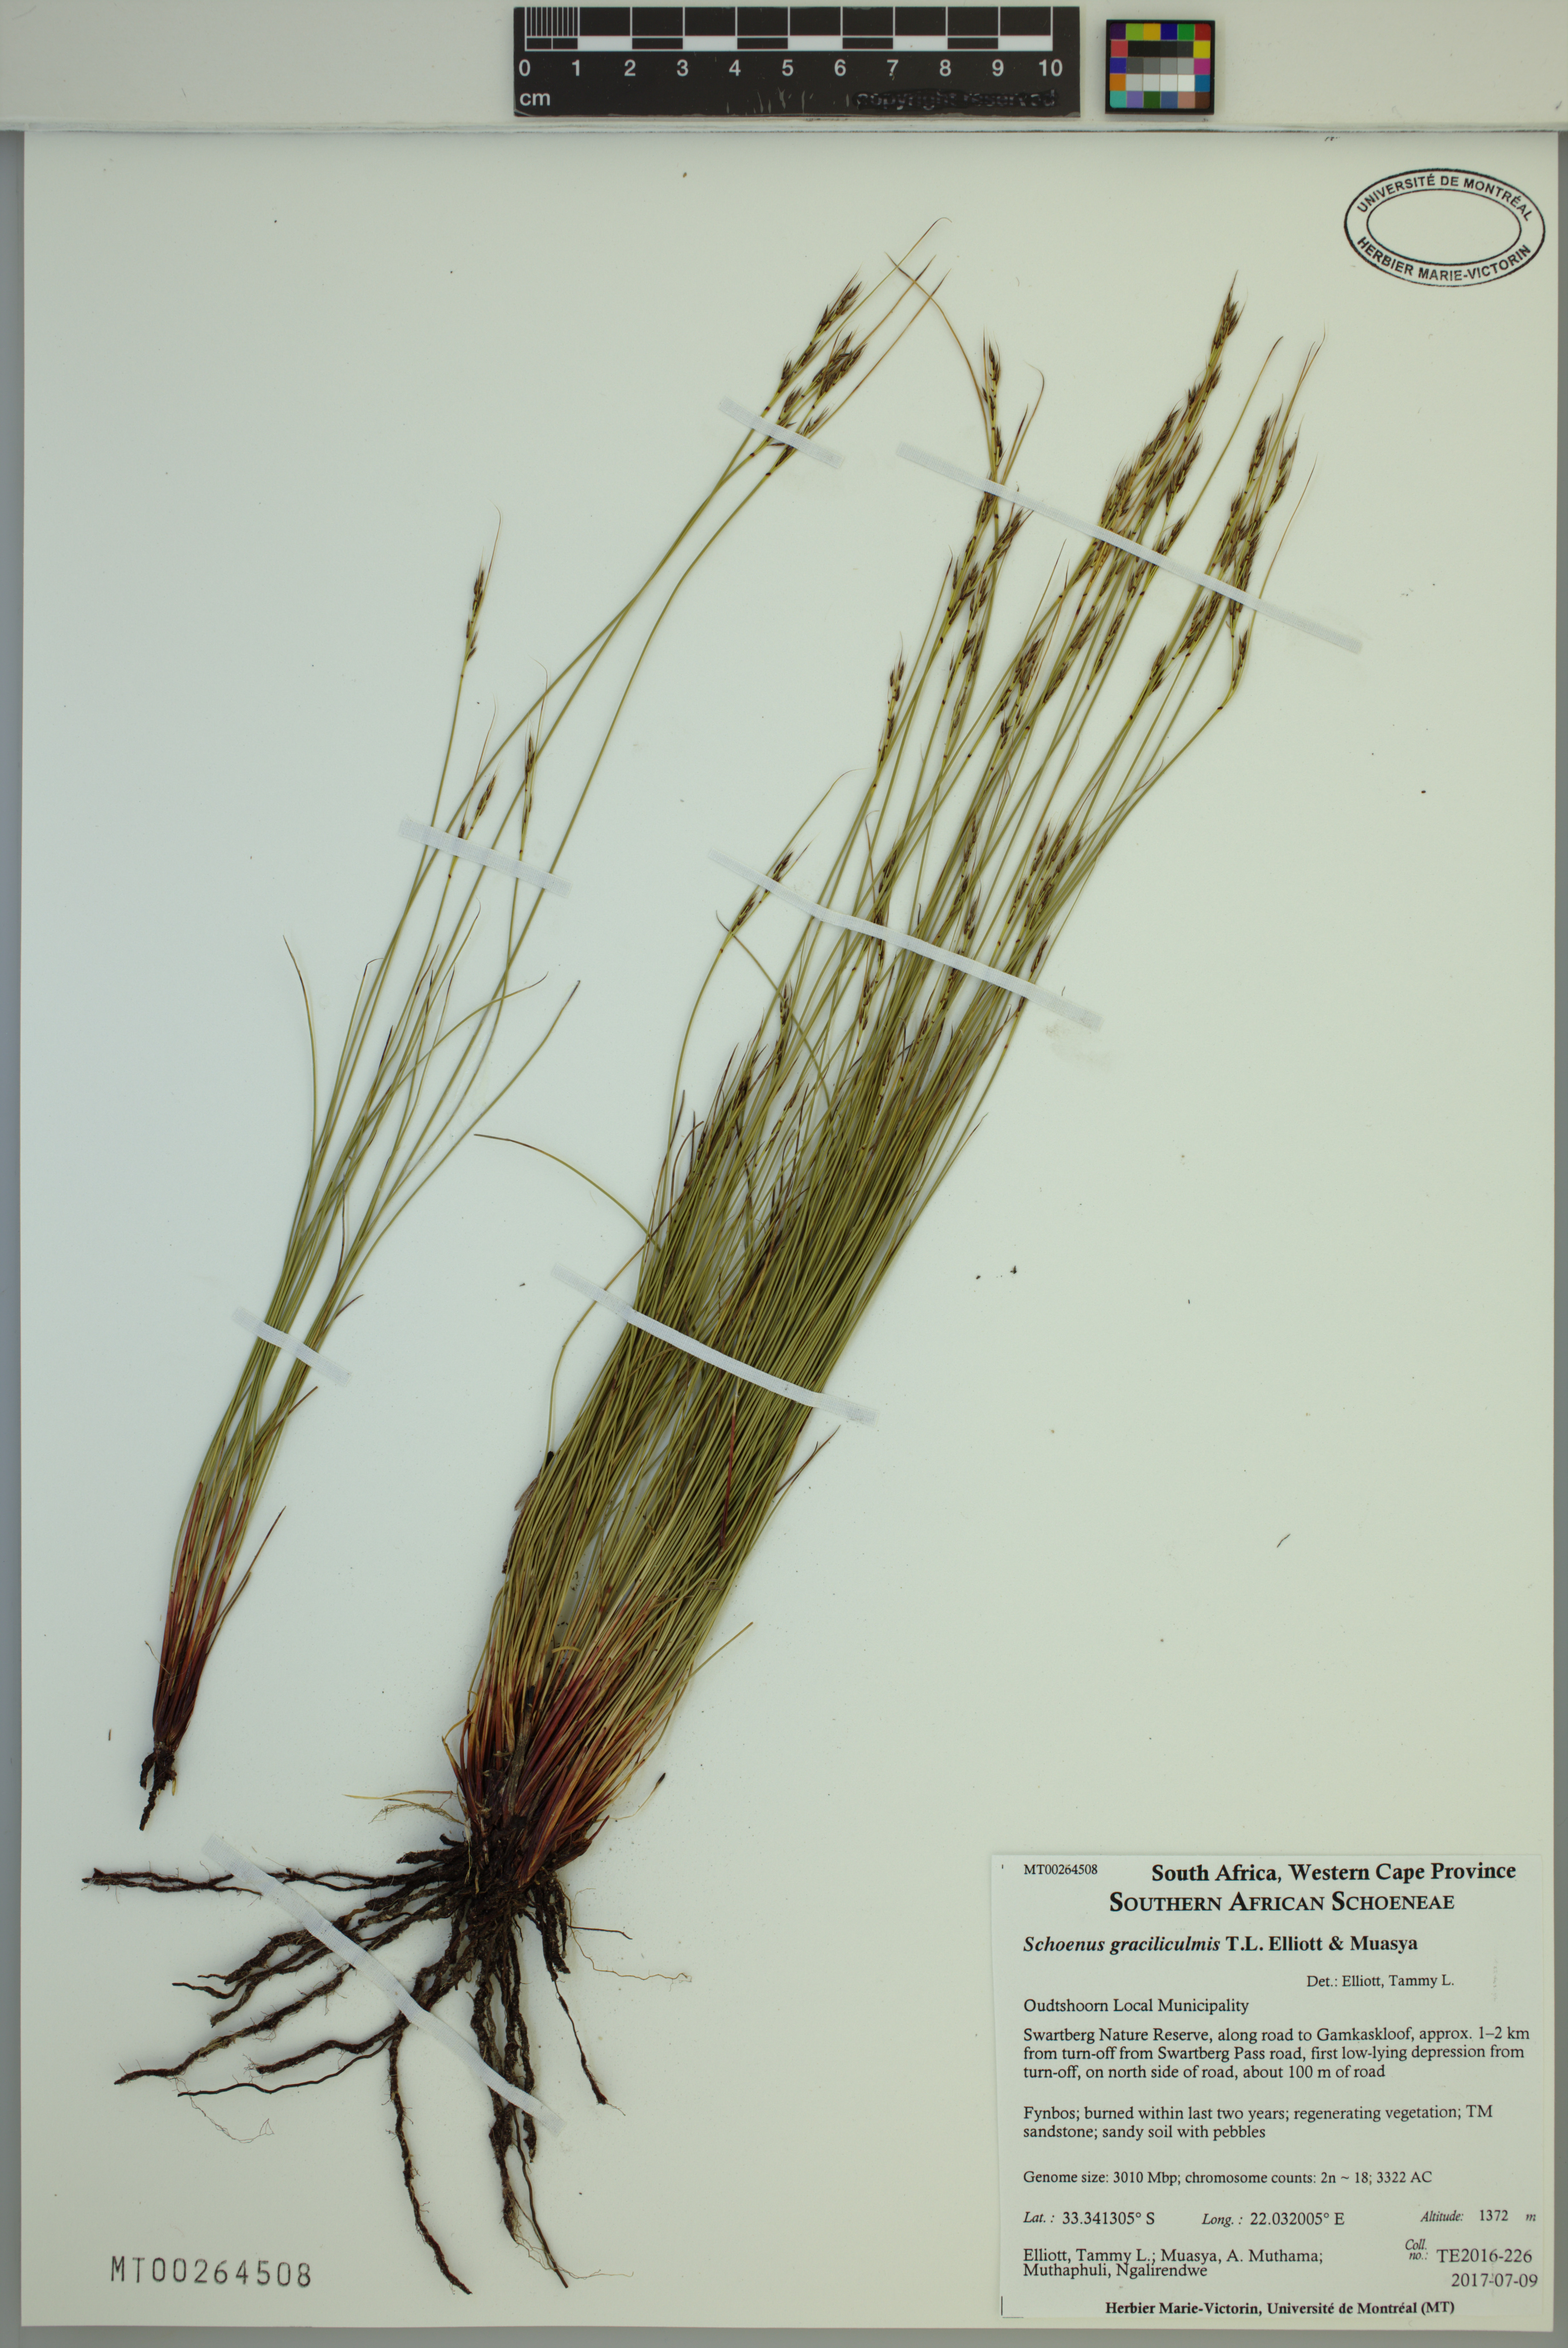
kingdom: Plantae
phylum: Tracheophyta
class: Liliopsida
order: Poales
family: Cyperaceae
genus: Schoenus
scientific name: Schoenus graciliculmis
